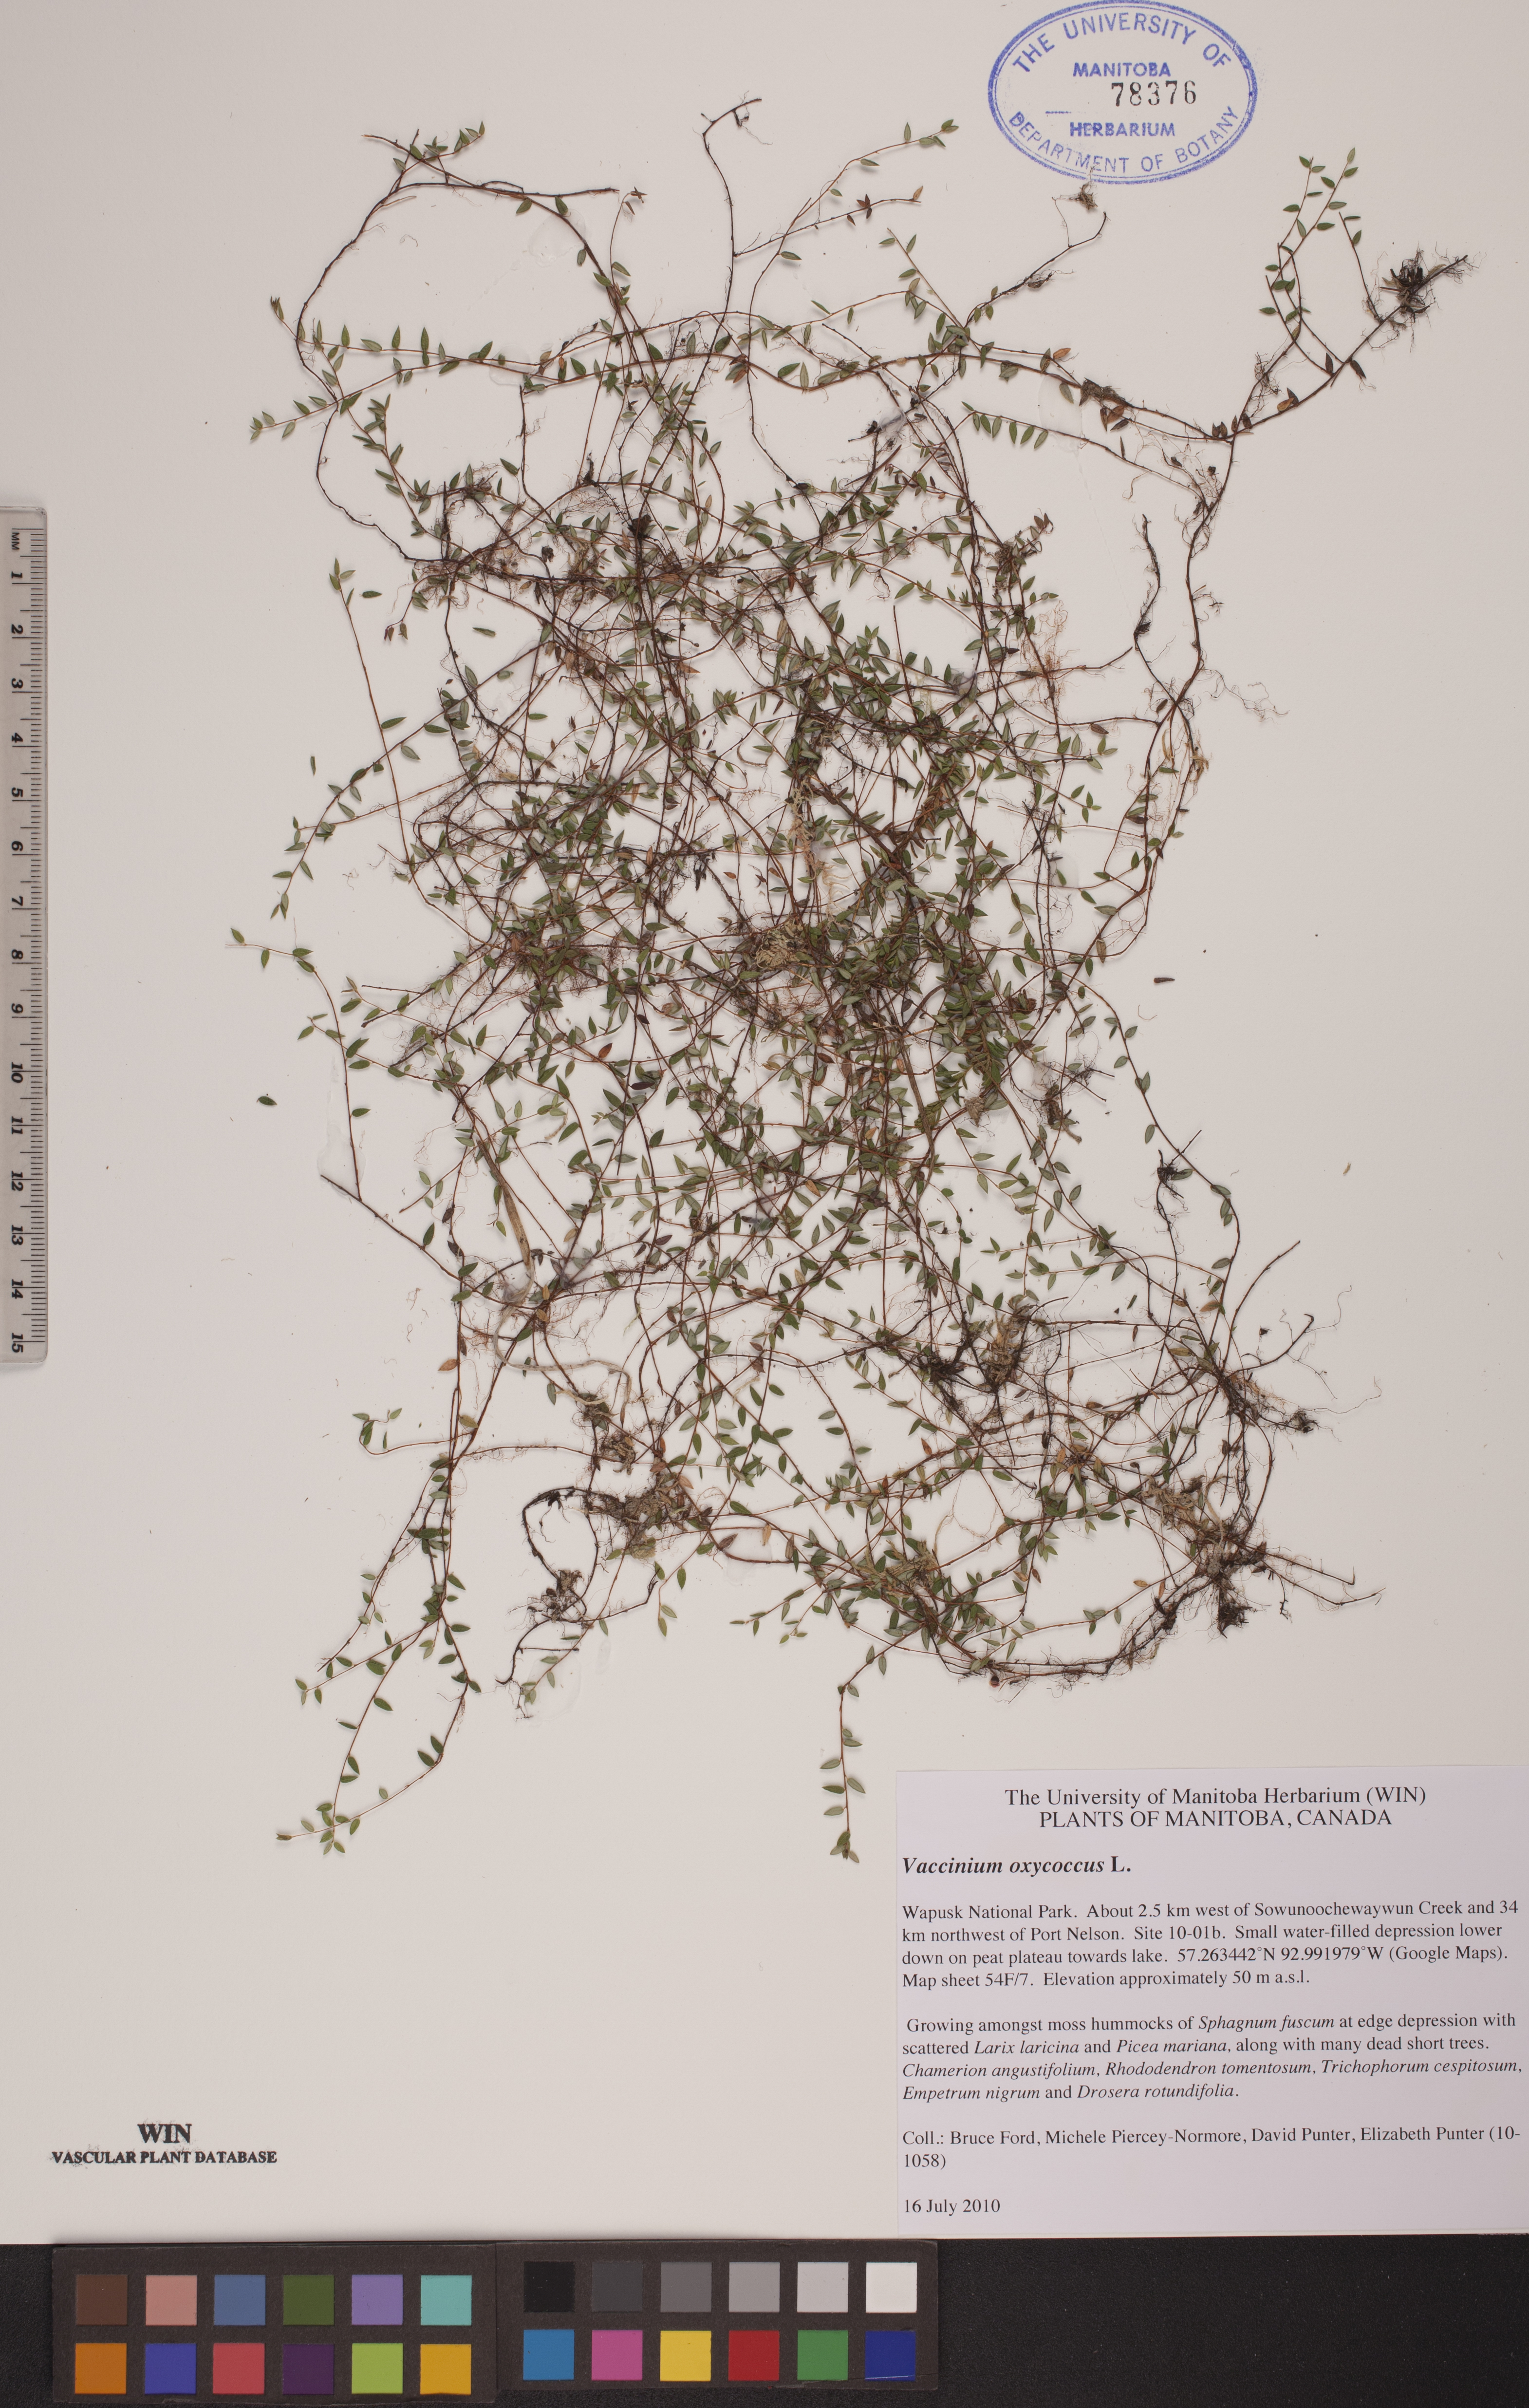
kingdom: Plantae
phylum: Tracheophyta
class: Magnoliopsida
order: Ericales
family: Ericaceae
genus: Vaccinium
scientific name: Vaccinium oxycoccos
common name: Cranberry
